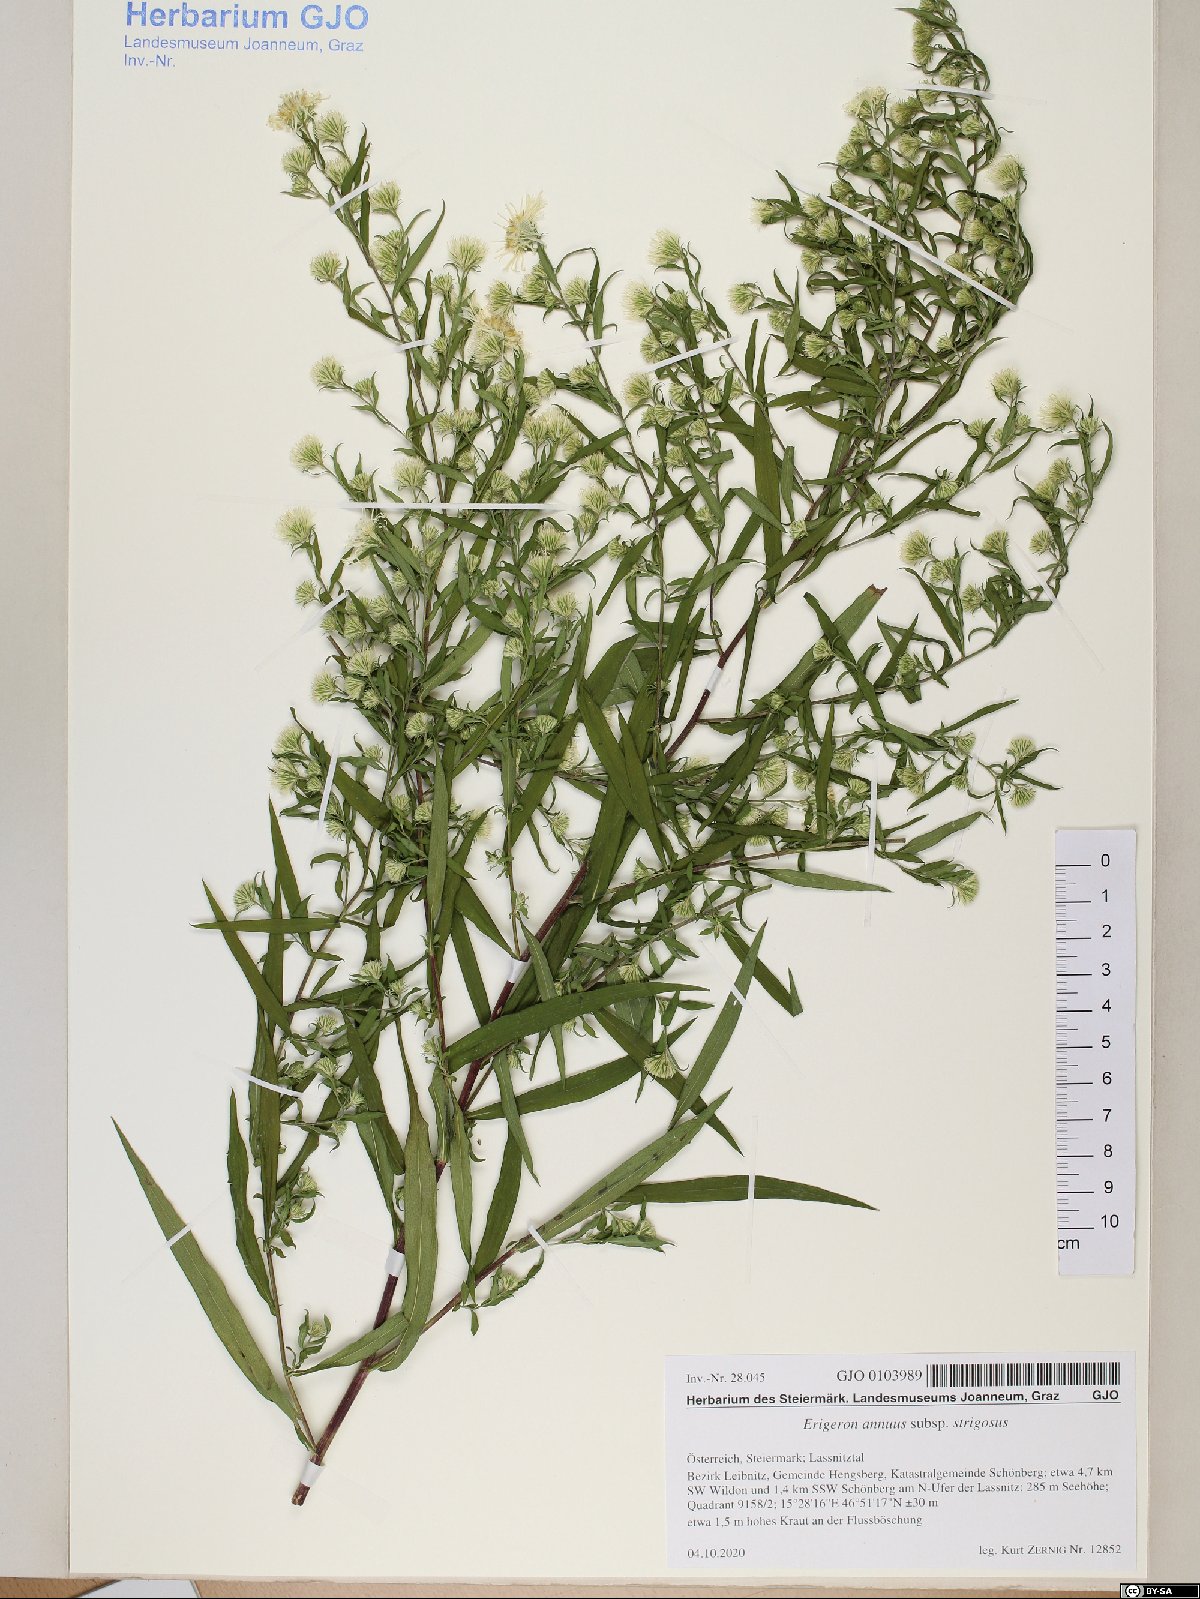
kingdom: Plantae
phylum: Tracheophyta
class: Magnoliopsida
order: Asterales
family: Asteraceae
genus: Erigeron
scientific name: Erigeron strigosus
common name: Common eastern fleabane
